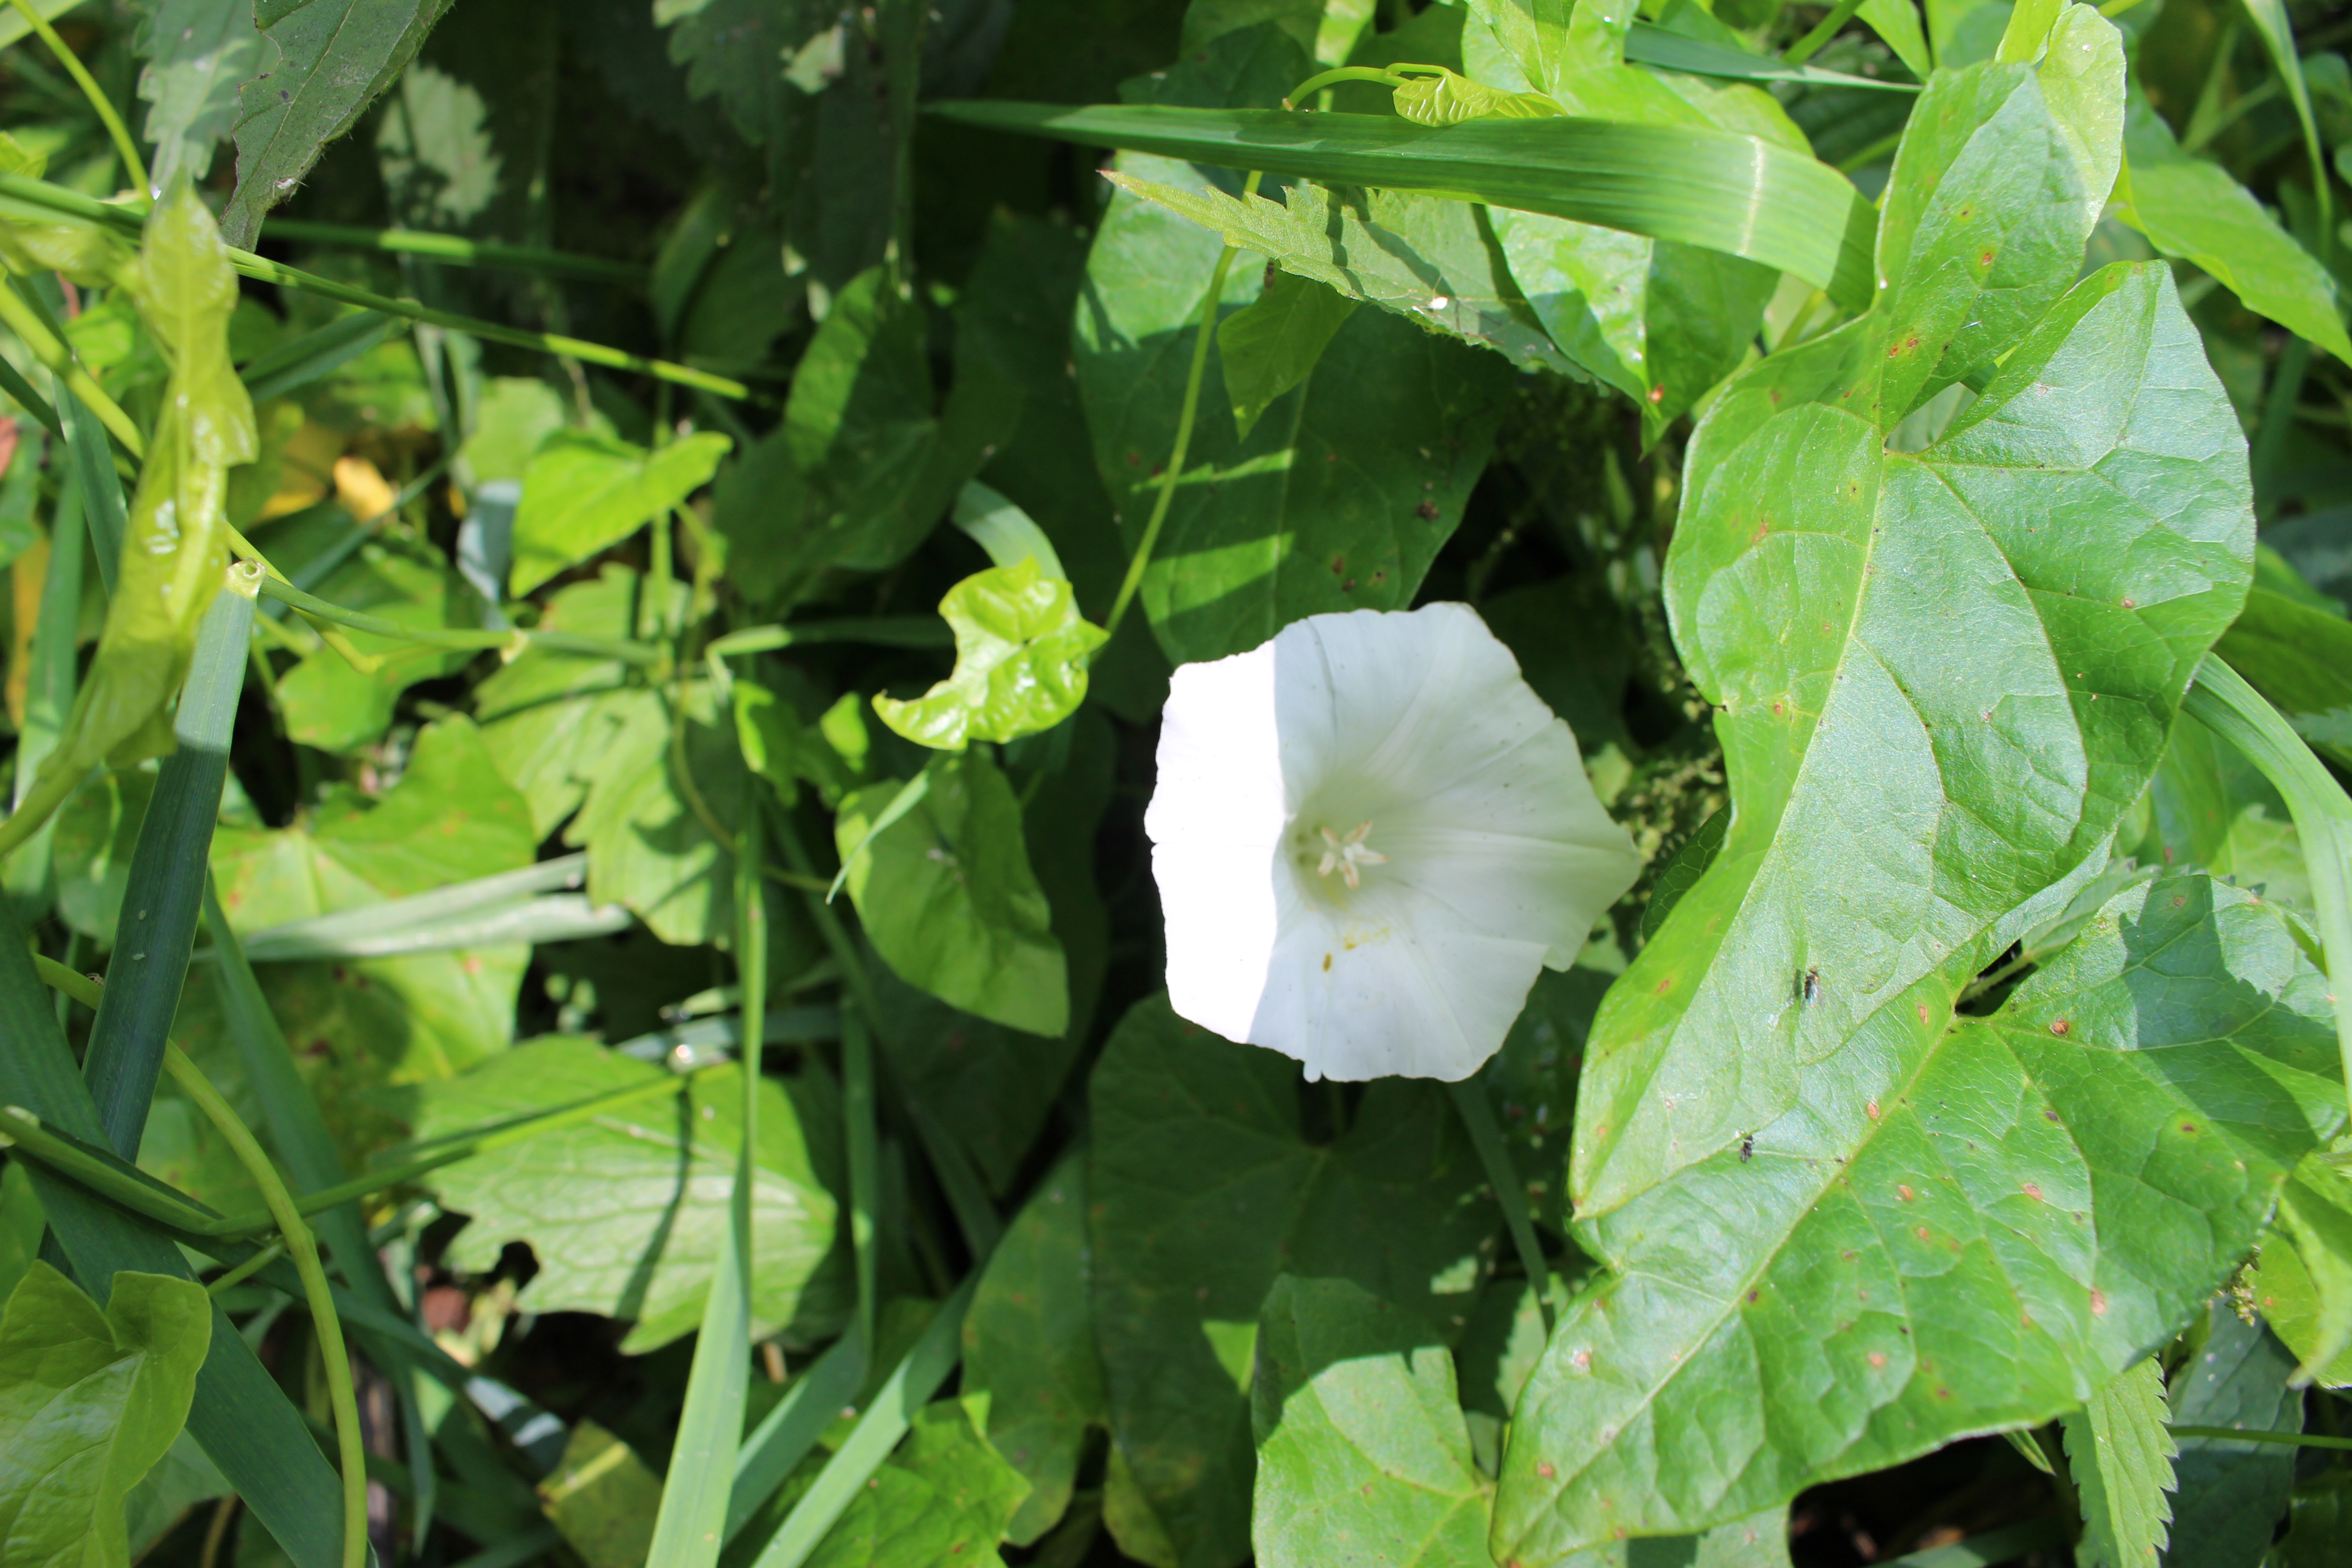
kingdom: Plantae
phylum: Tracheophyta
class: Magnoliopsida
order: Solanales
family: Convolvulaceae
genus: Calystegia
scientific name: Calystegia sepium
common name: Hedge bindweed
